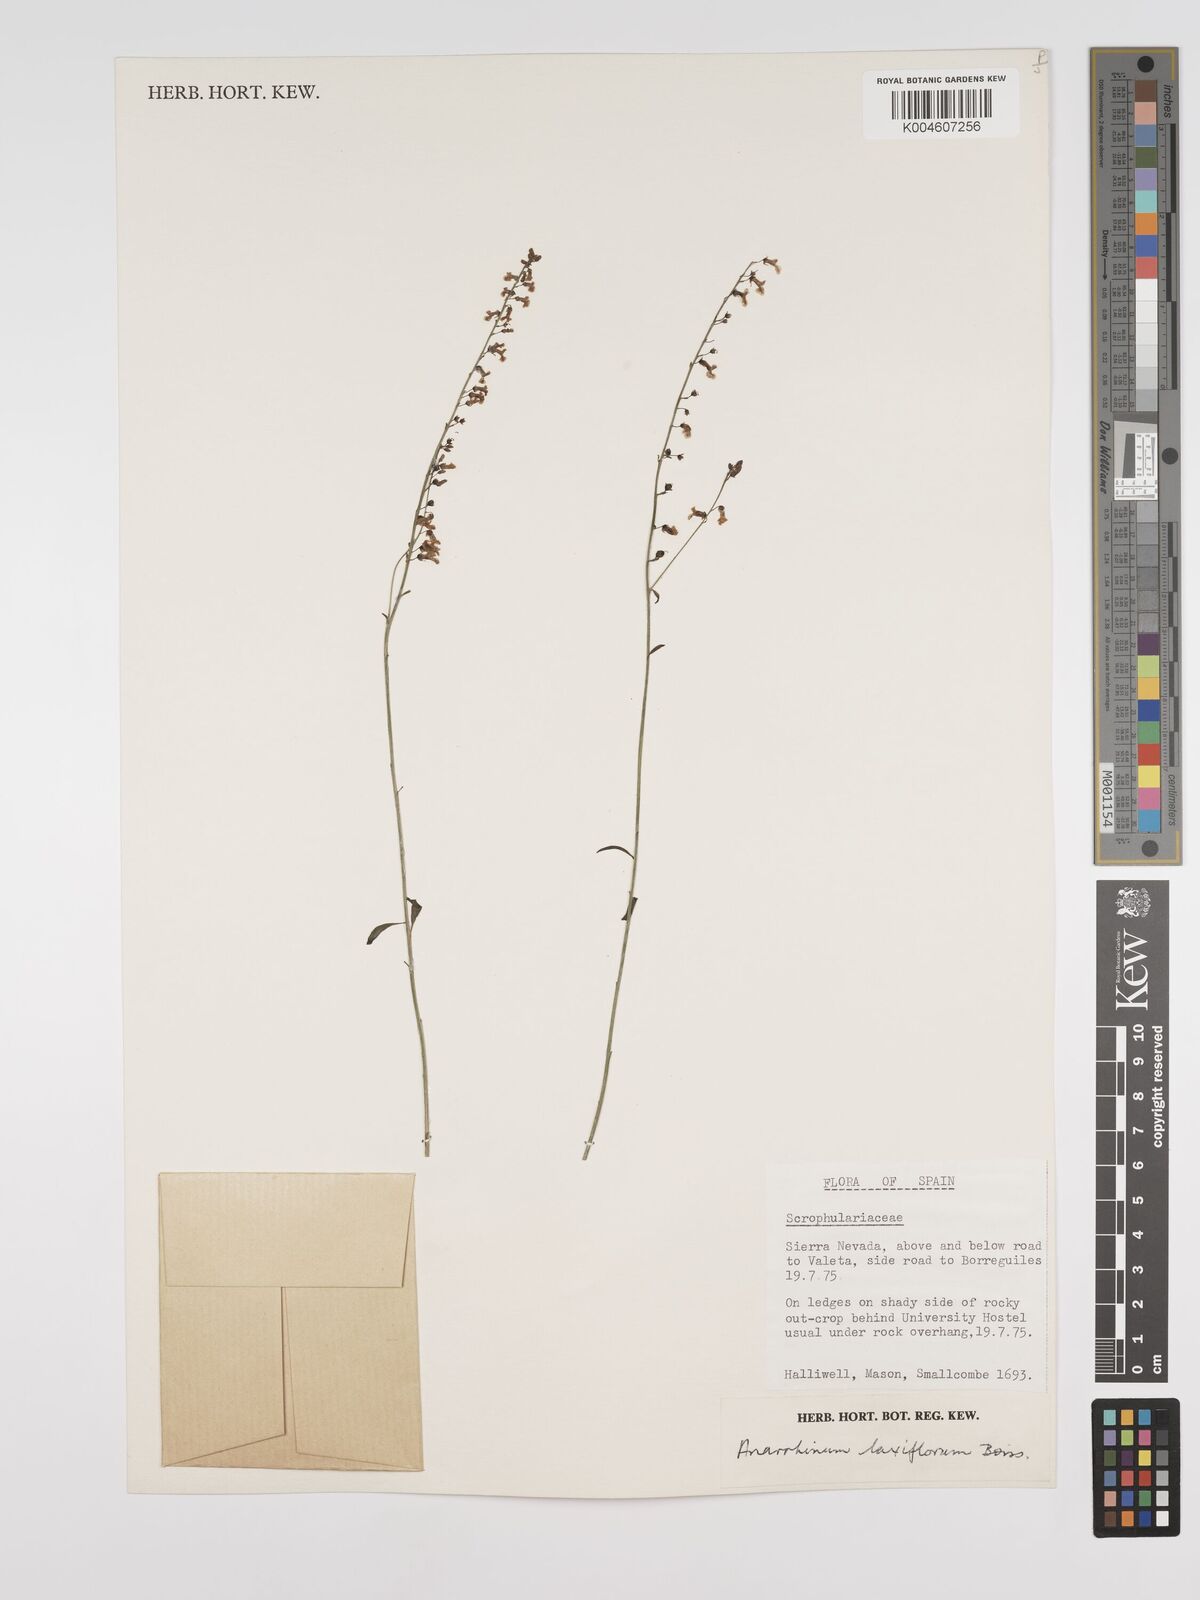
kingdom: Plantae
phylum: Tracheophyta
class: Magnoliopsida
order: Lamiales
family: Plantaginaceae
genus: Anarrhinum
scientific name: Anarrhinum laxiflorum
